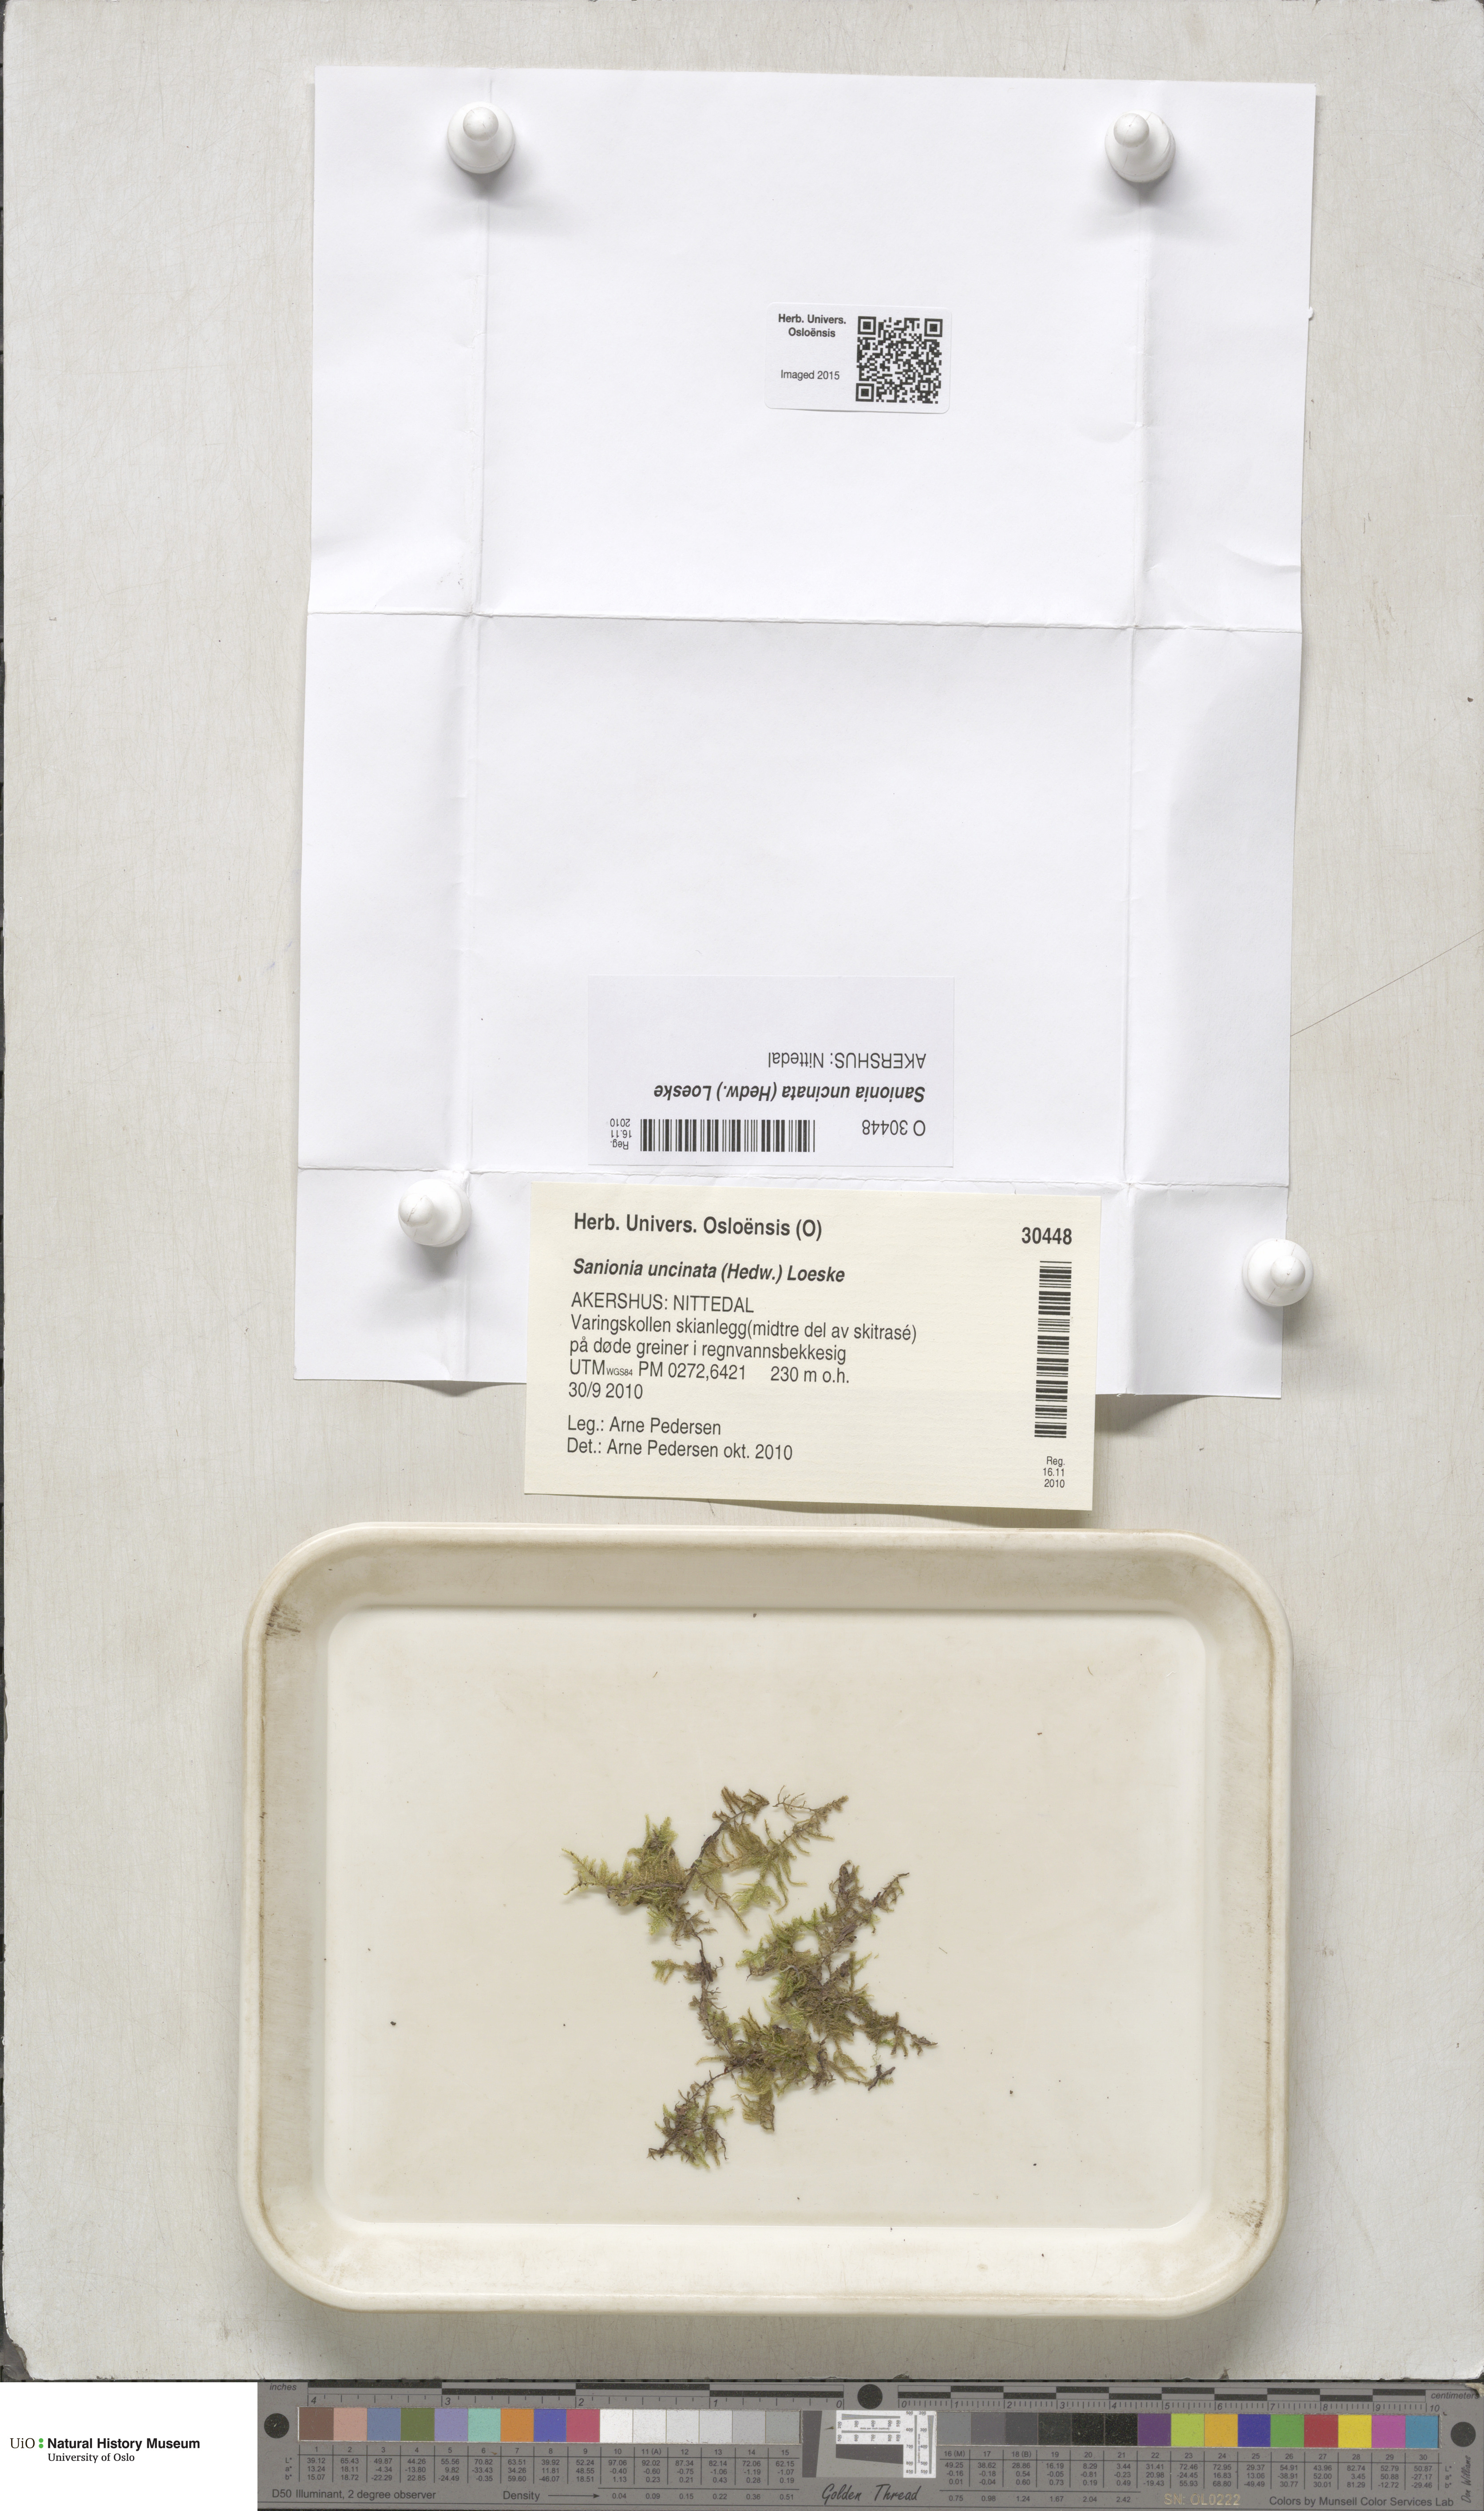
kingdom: Plantae
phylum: Bryophyta
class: Bryopsida
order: Hypnales
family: Scorpidiaceae
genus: Sanionia
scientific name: Sanionia uncinata
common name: Sickle moss
